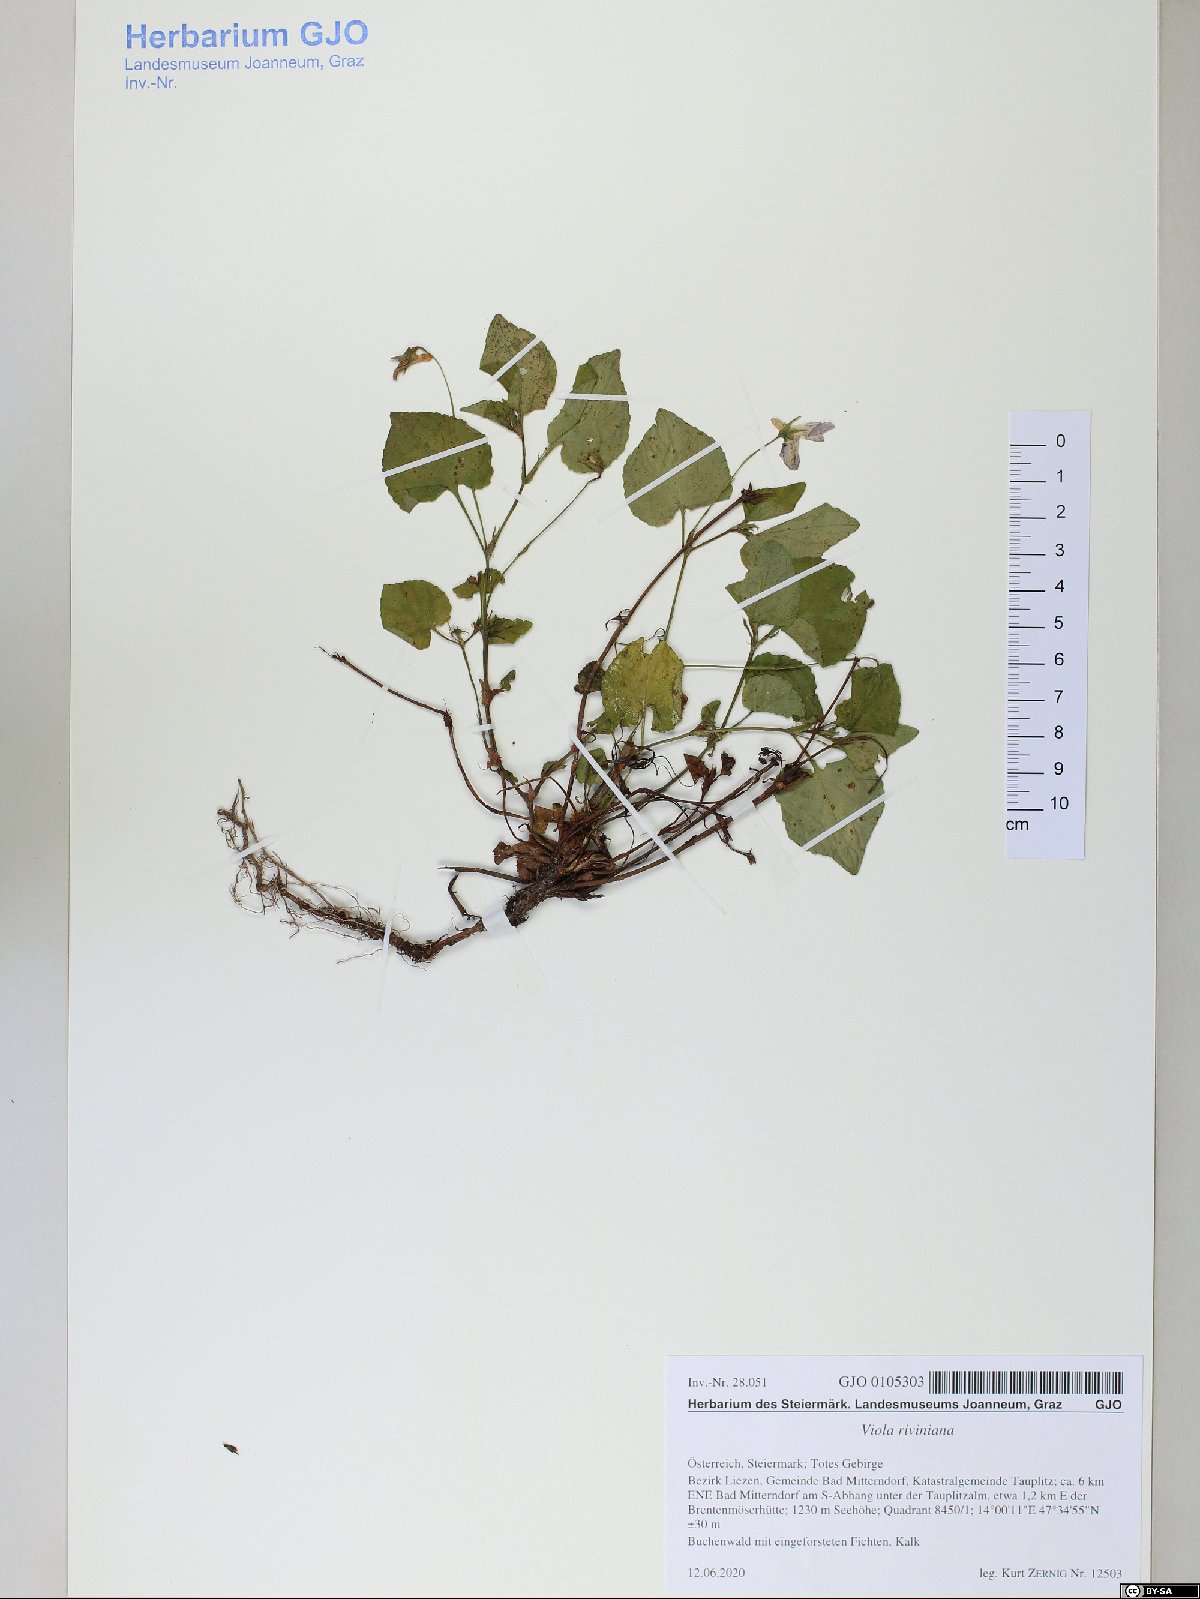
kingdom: Plantae
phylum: Tracheophyta
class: Magnoliopsida
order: Malpighiales
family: Violaceae
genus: Viola
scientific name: Viola riviniana
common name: Common dog-violet
